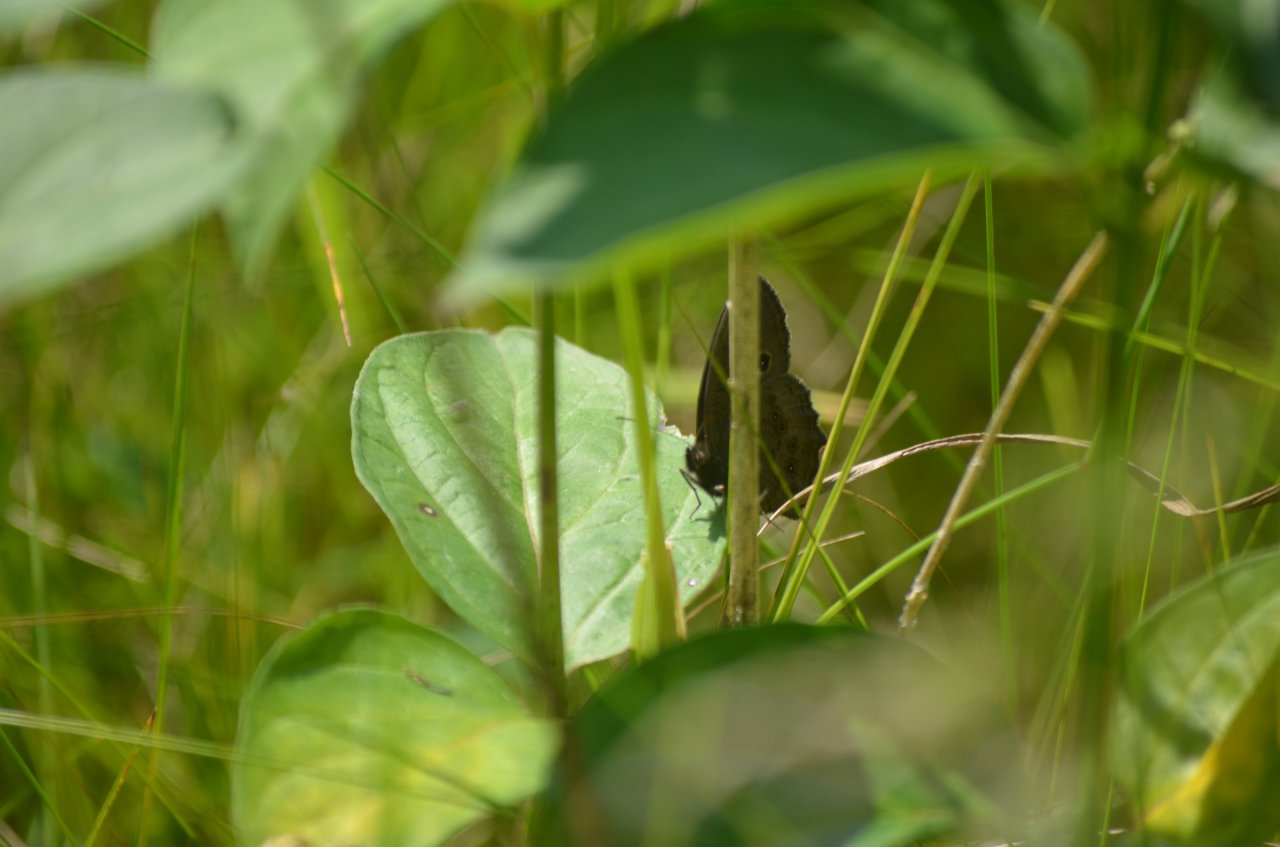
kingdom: Animalia
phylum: Arthropoda
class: Insecta
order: Lepidoptera
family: Nymphalidae
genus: Cercyonis
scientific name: Cercyonis pegala
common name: Common Wood-Nymph
